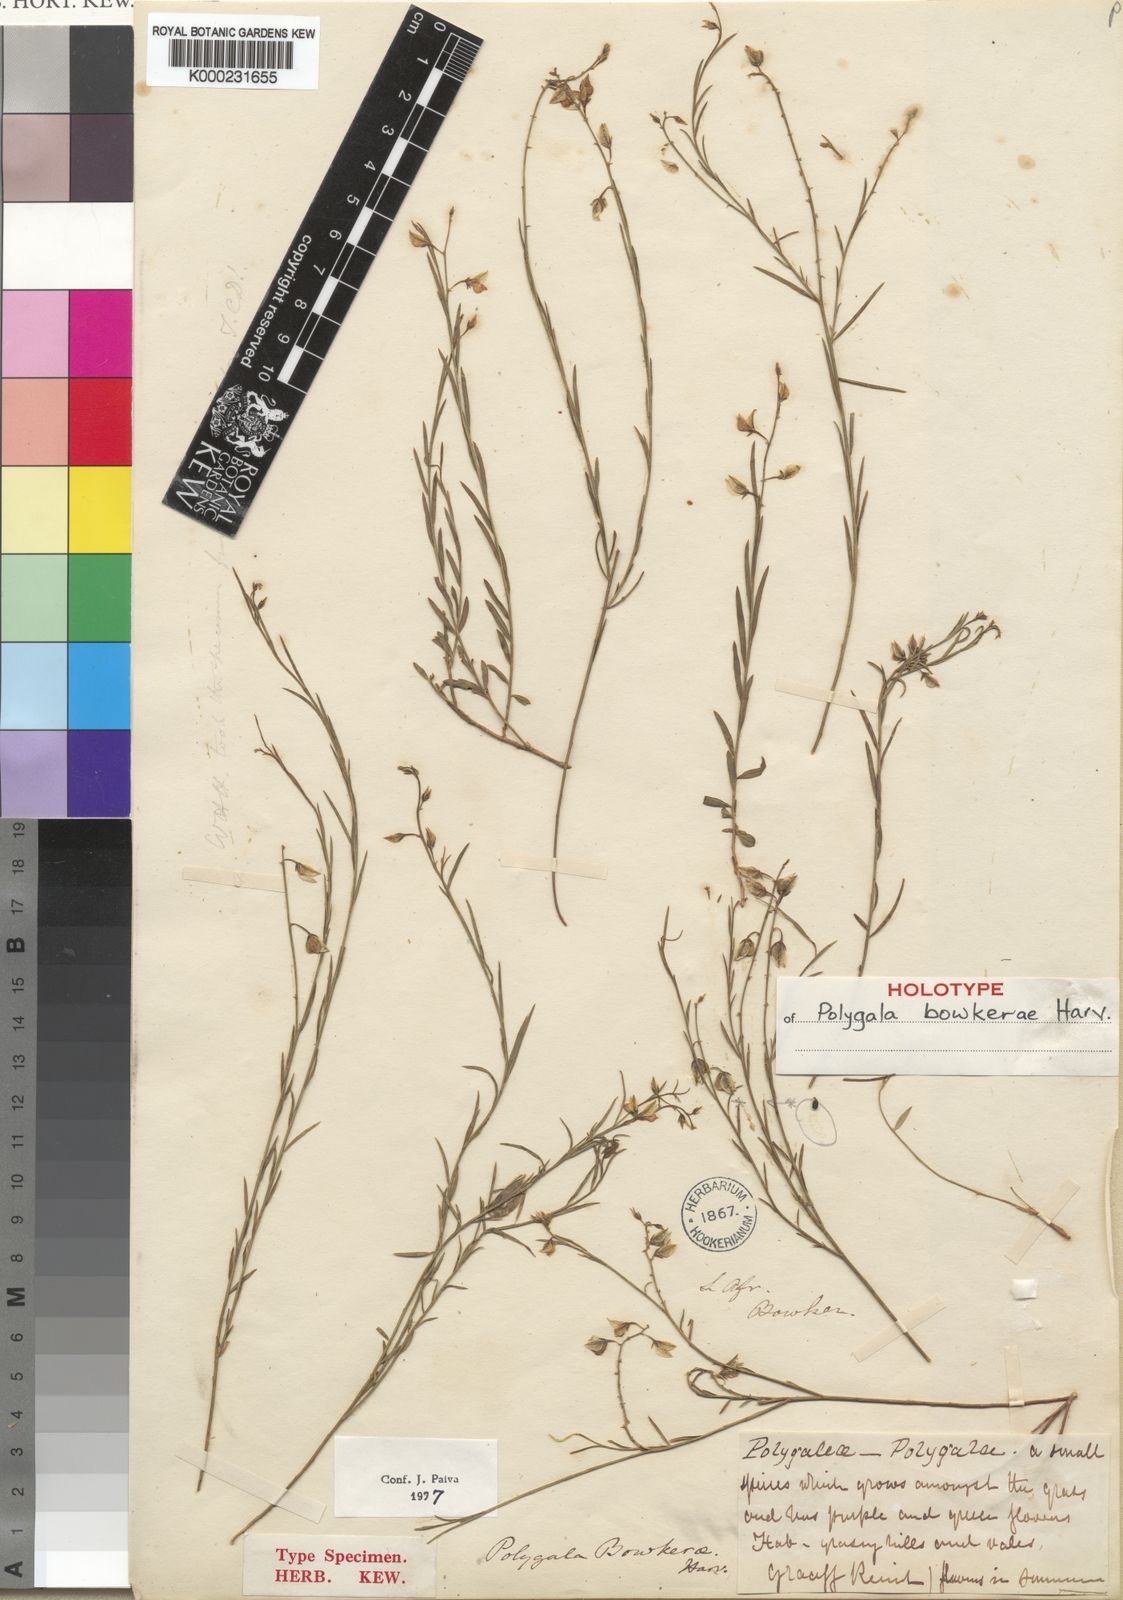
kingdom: Plantae
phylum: Tracheophyta
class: Magnoliopsida
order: Fabales
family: Polygalaceae
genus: Polygala
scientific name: Polygala bowkerae
